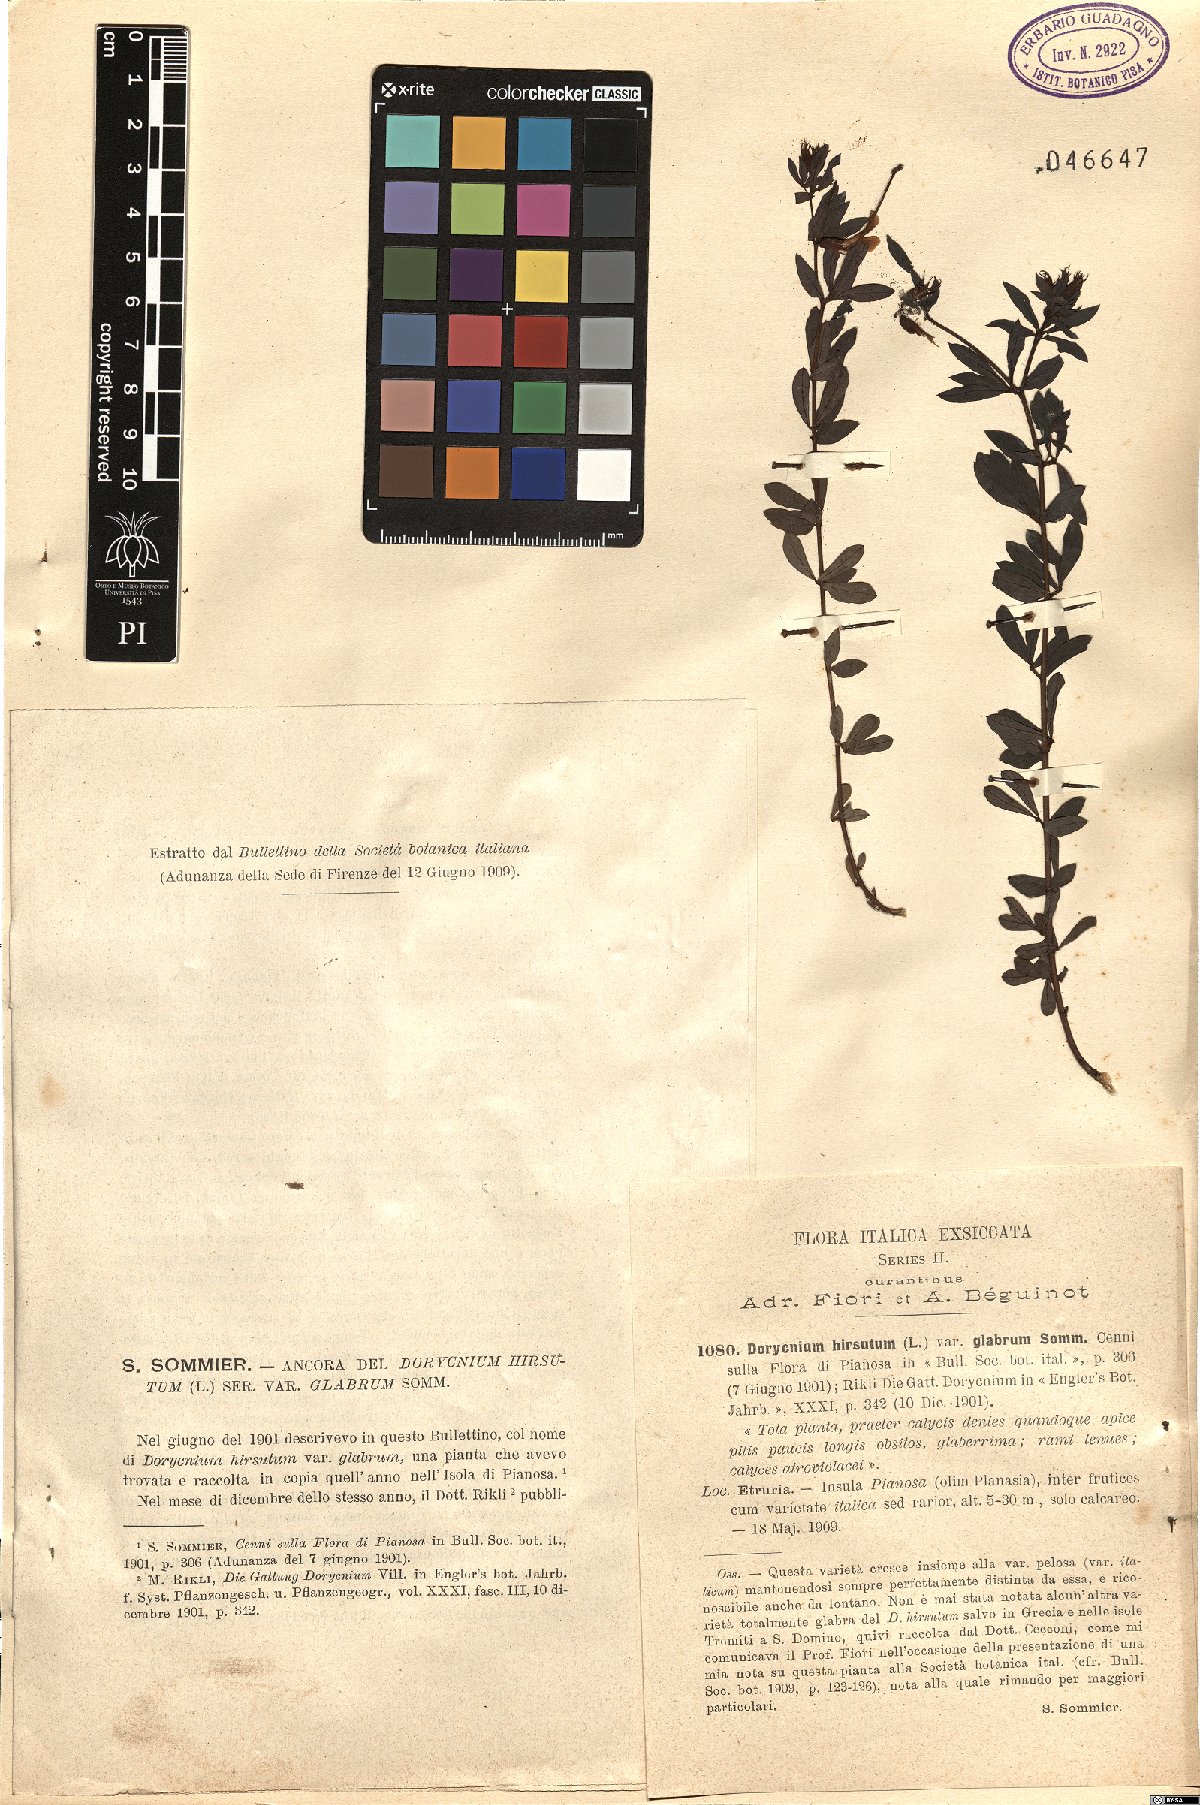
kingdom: Plantae
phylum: Tracheophyta
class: Magnoliopsida
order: Fabales
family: Fabaceae
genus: Lotus
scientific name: Lotus hirsutus
